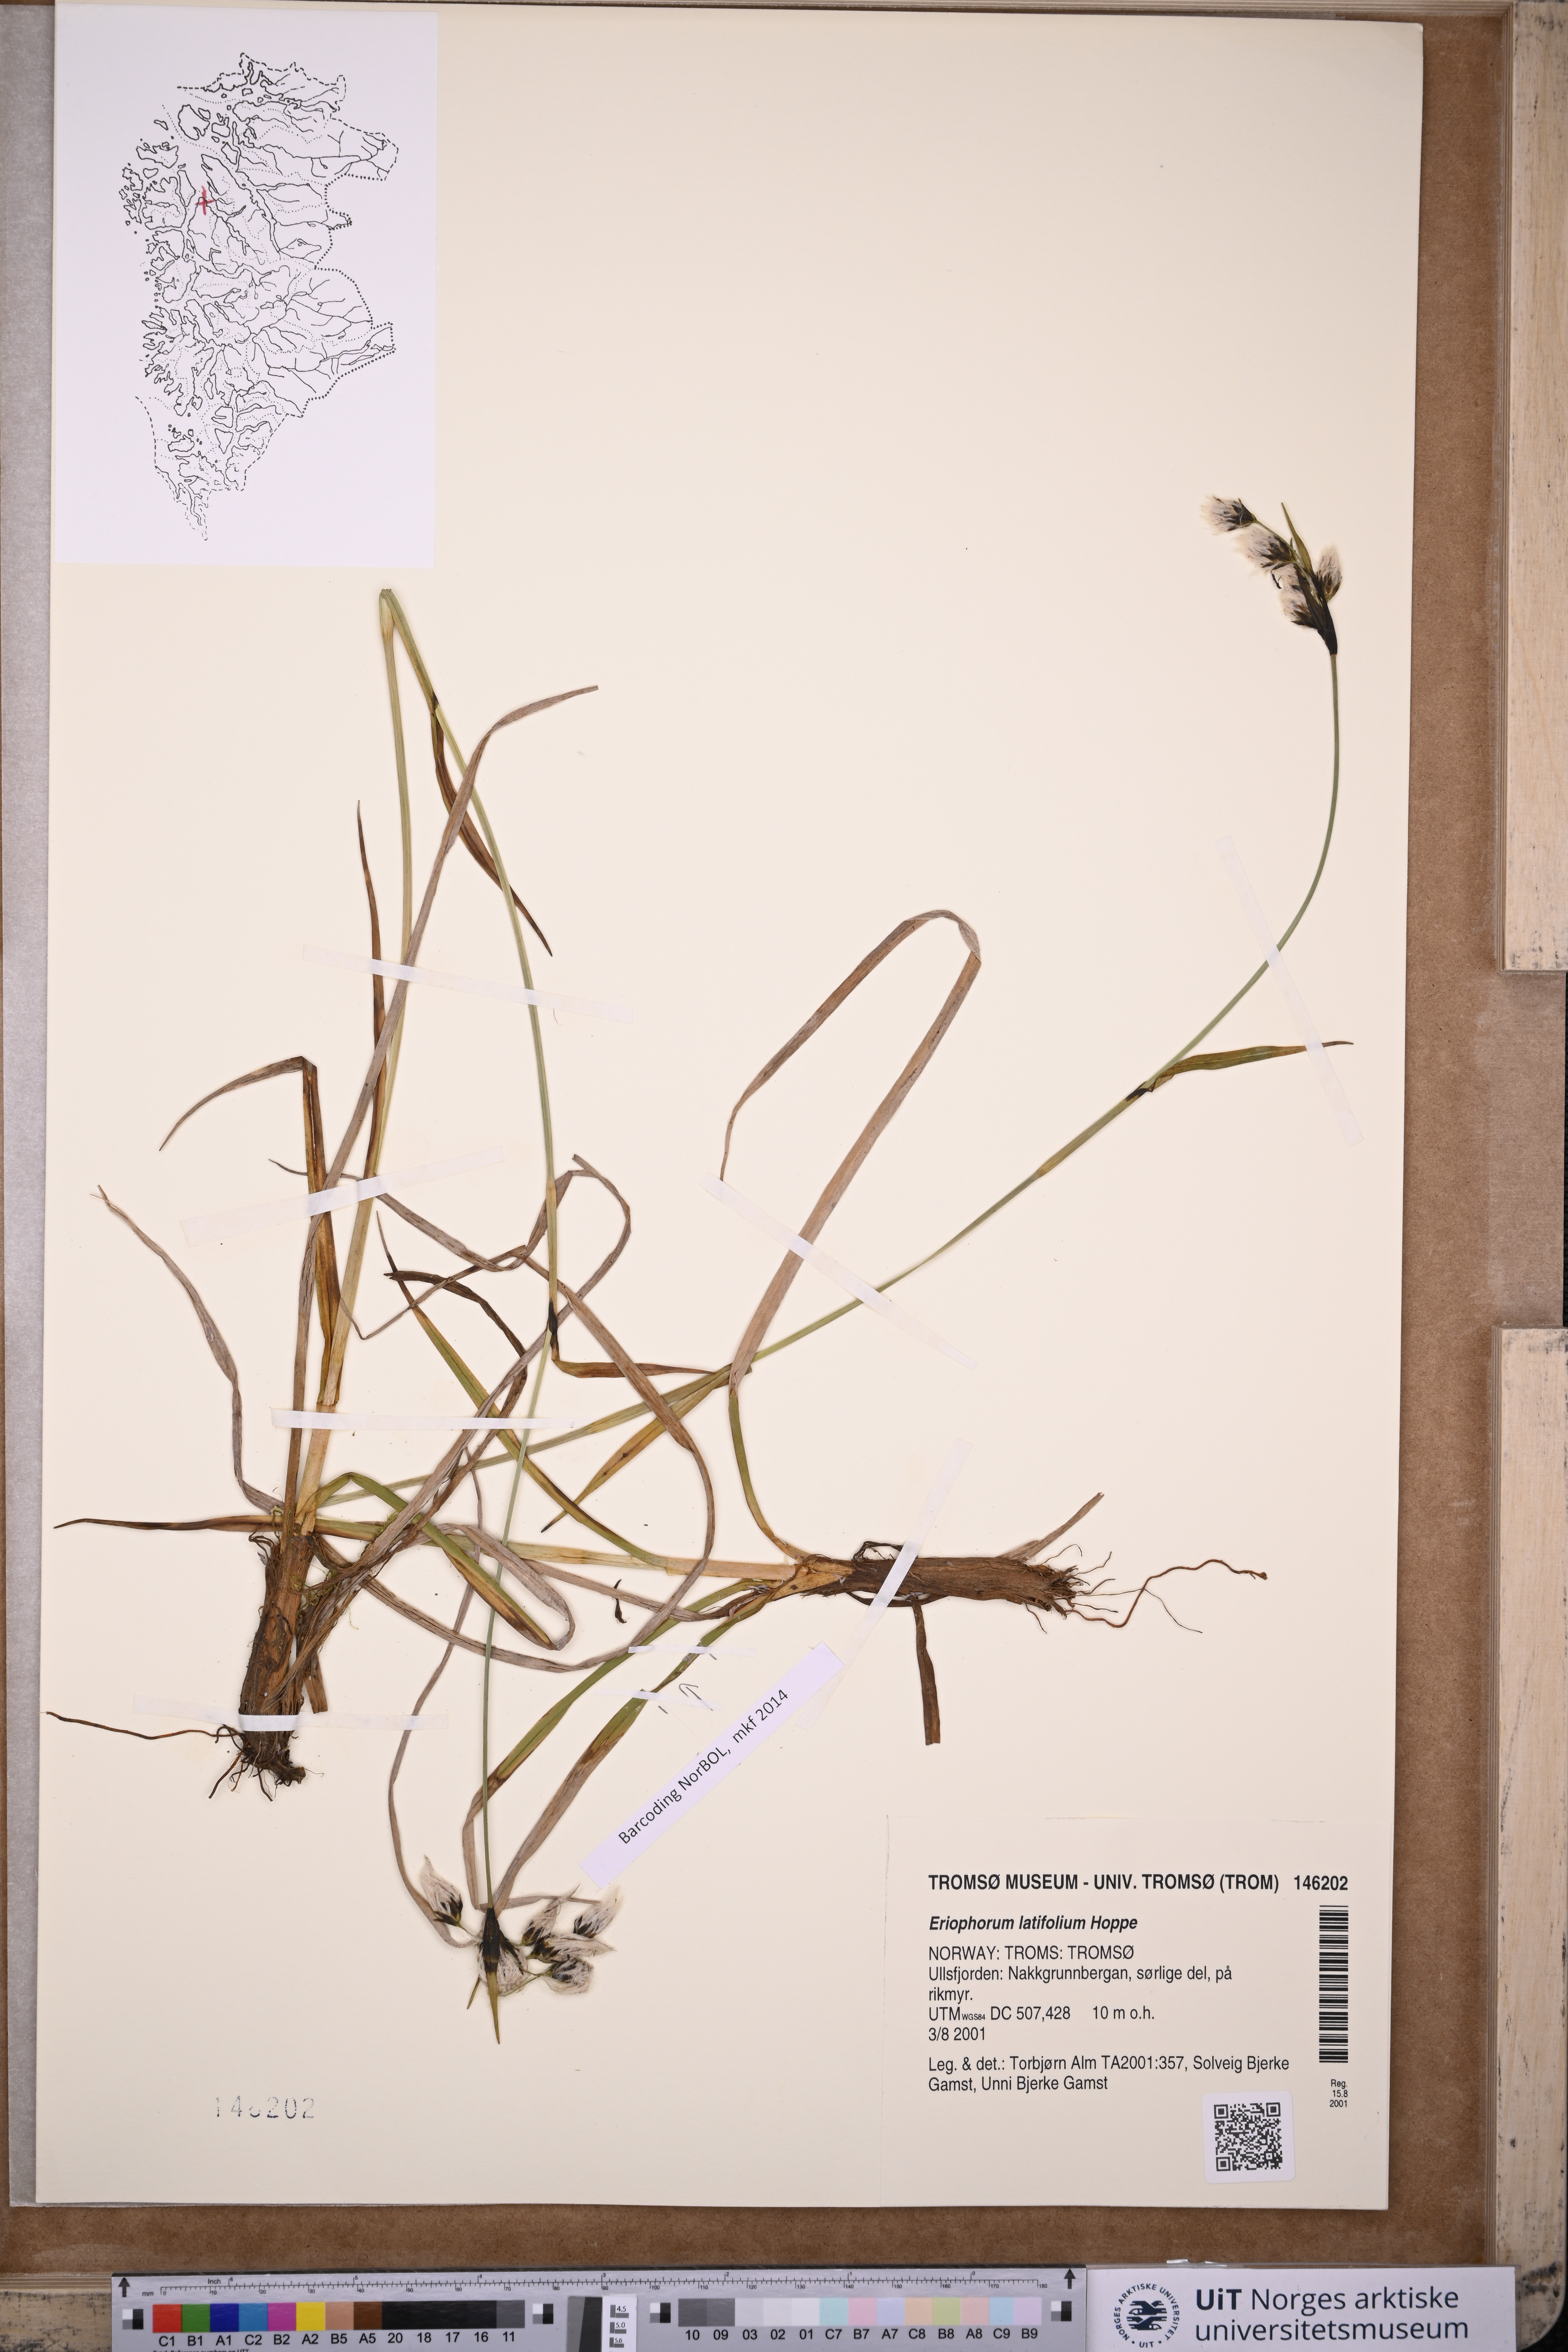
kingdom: Plantae
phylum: Tracheophyta
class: Liliopsida
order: Poales
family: Cyperaceae
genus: Eriophorum
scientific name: Eriophorum latifolium
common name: Broad-leaved cottongrass
